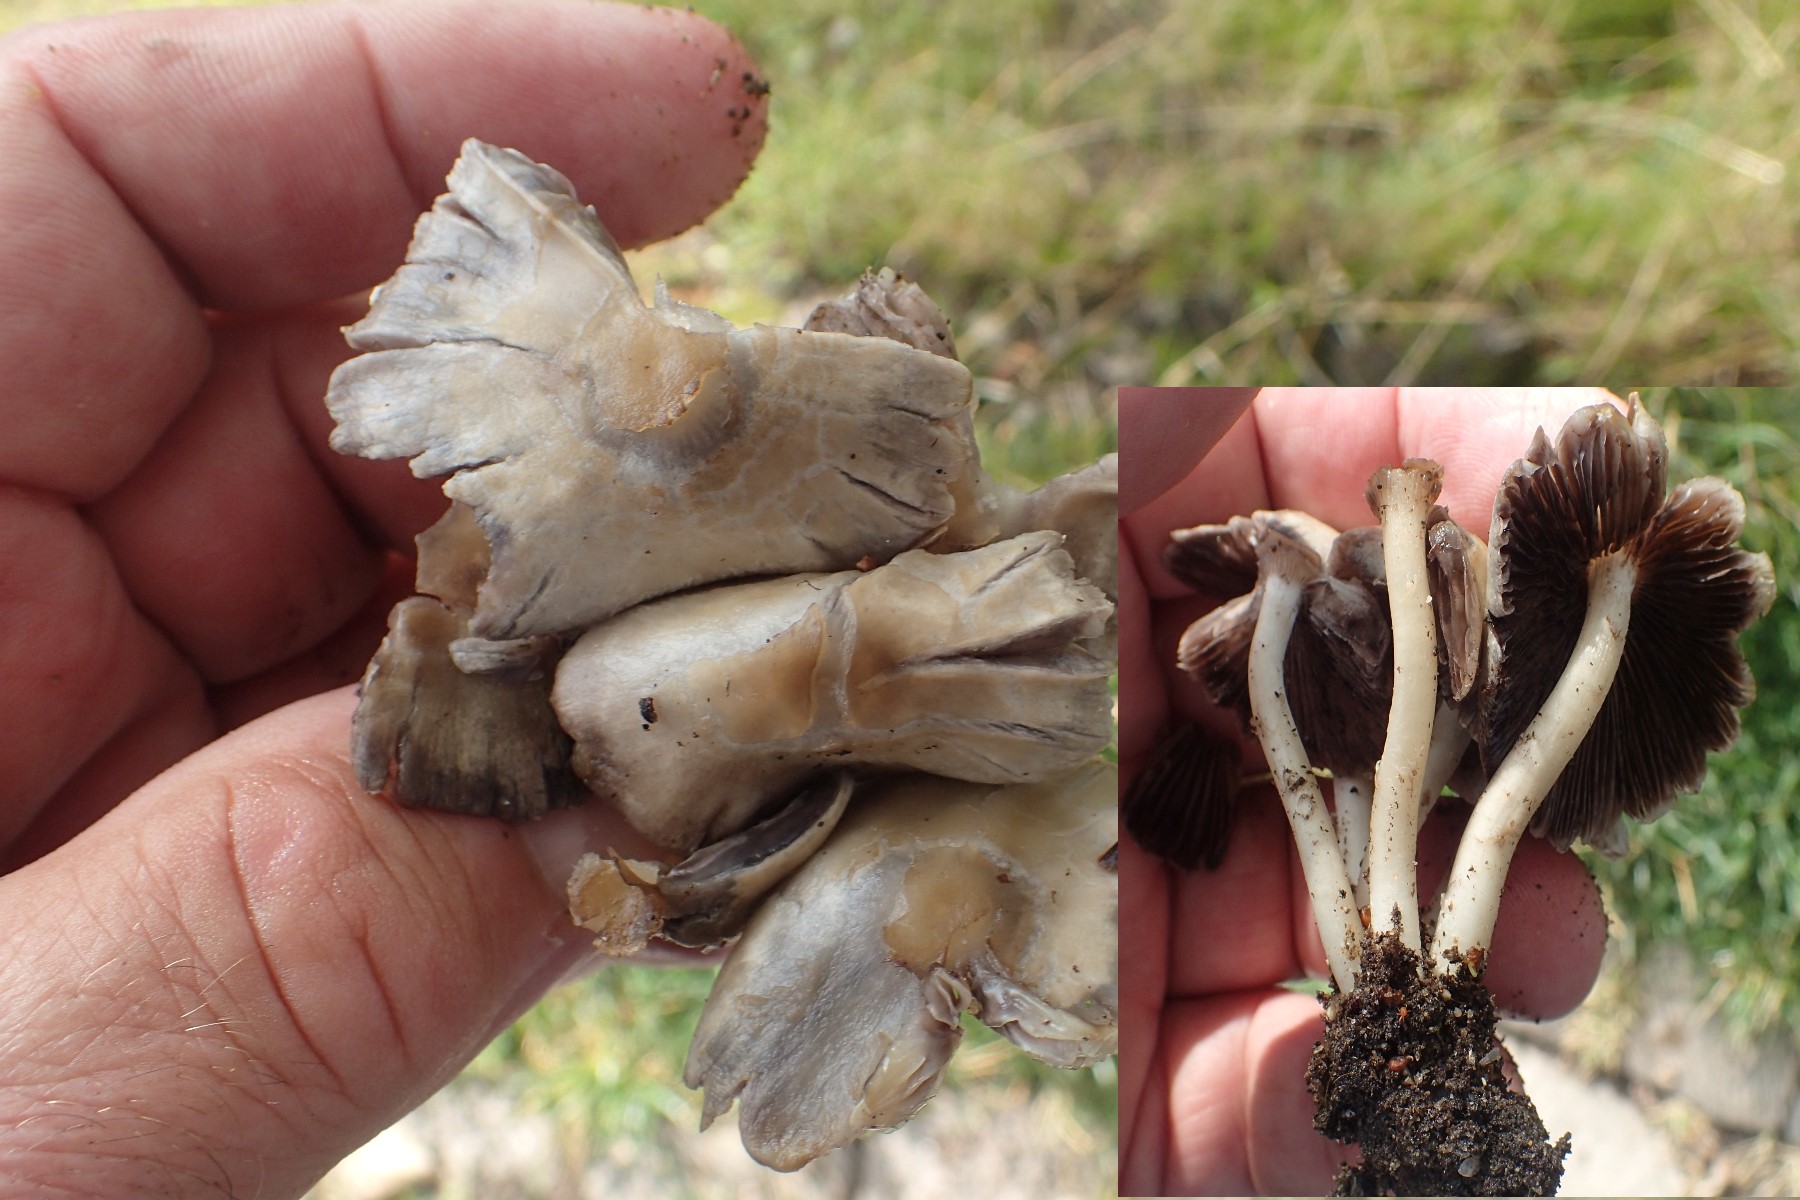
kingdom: Fungi
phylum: Basidiomycota
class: Agaricomycetes
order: Agaricales
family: Psathyrellaceae
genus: Candolleomyces
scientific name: Candolleomyces candolleanus
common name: Candolles mørkhat
